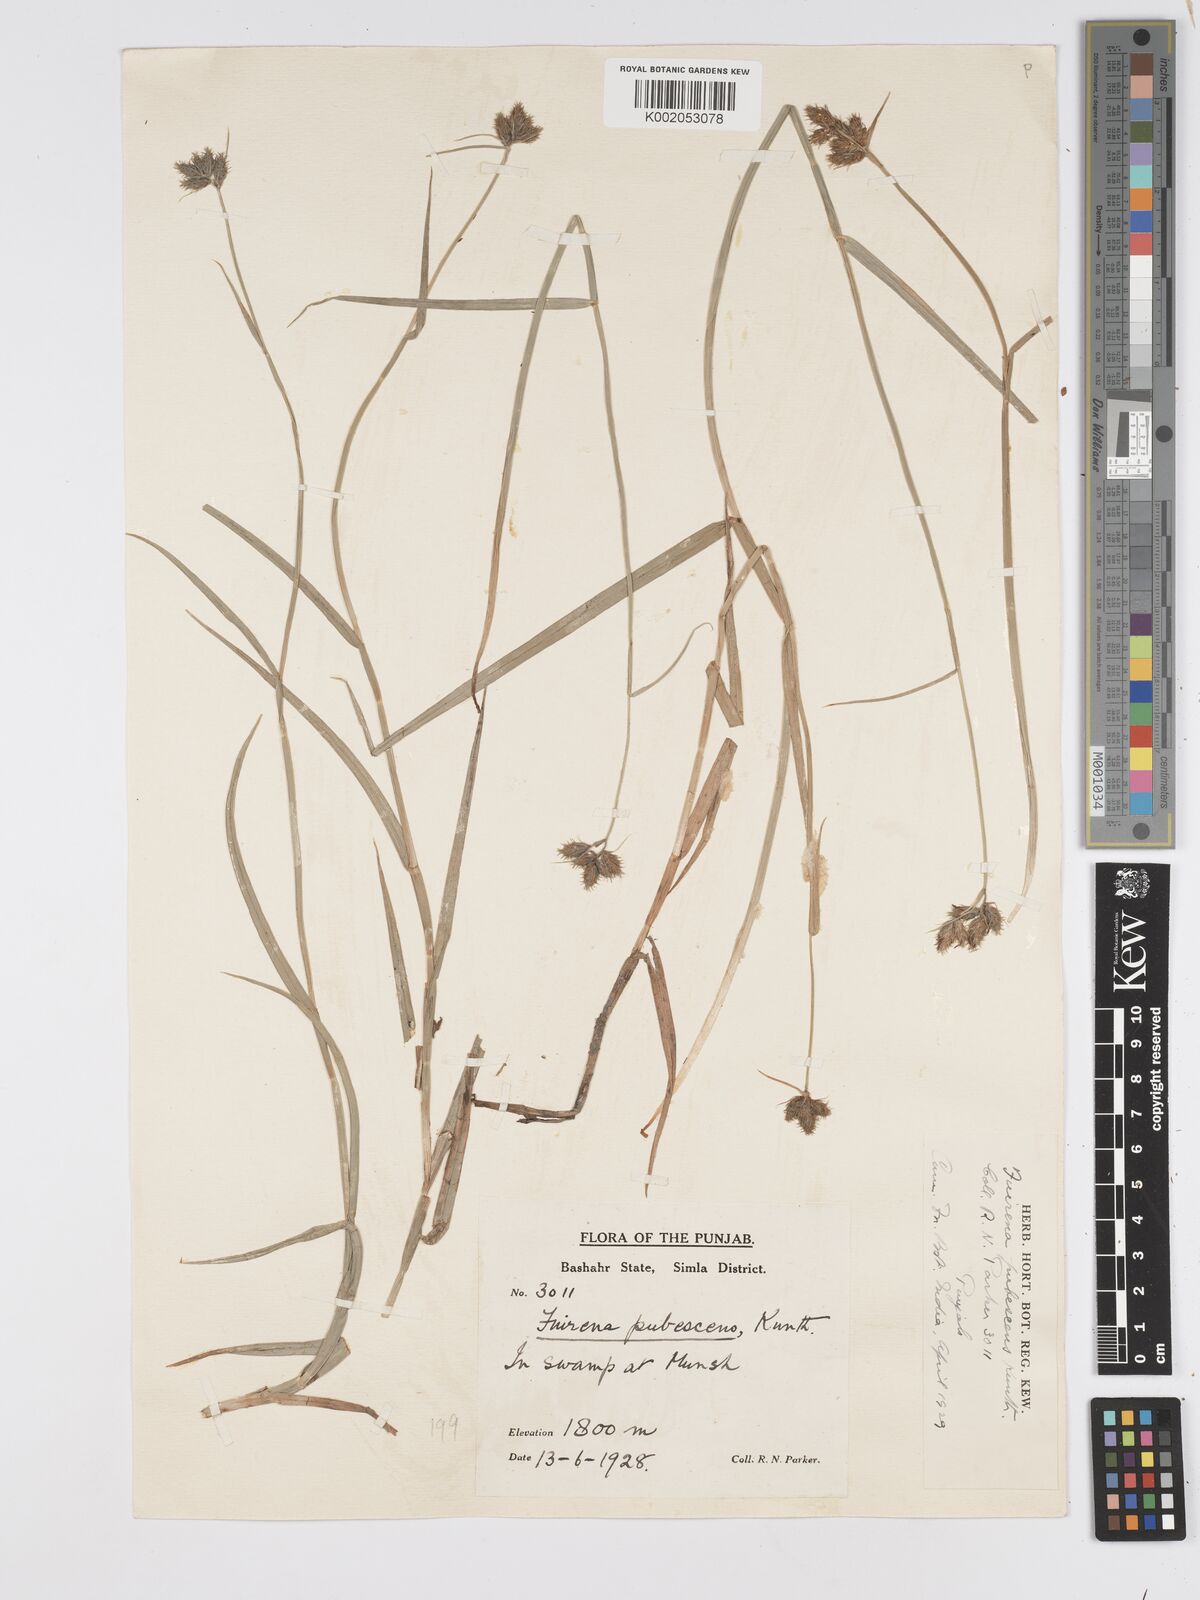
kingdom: Plantae
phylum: Tracheophyta
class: Liliopsida
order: Poales
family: Cyperaceae
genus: Fuirena
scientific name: Fuirena pubescens
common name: Hairy sedge
